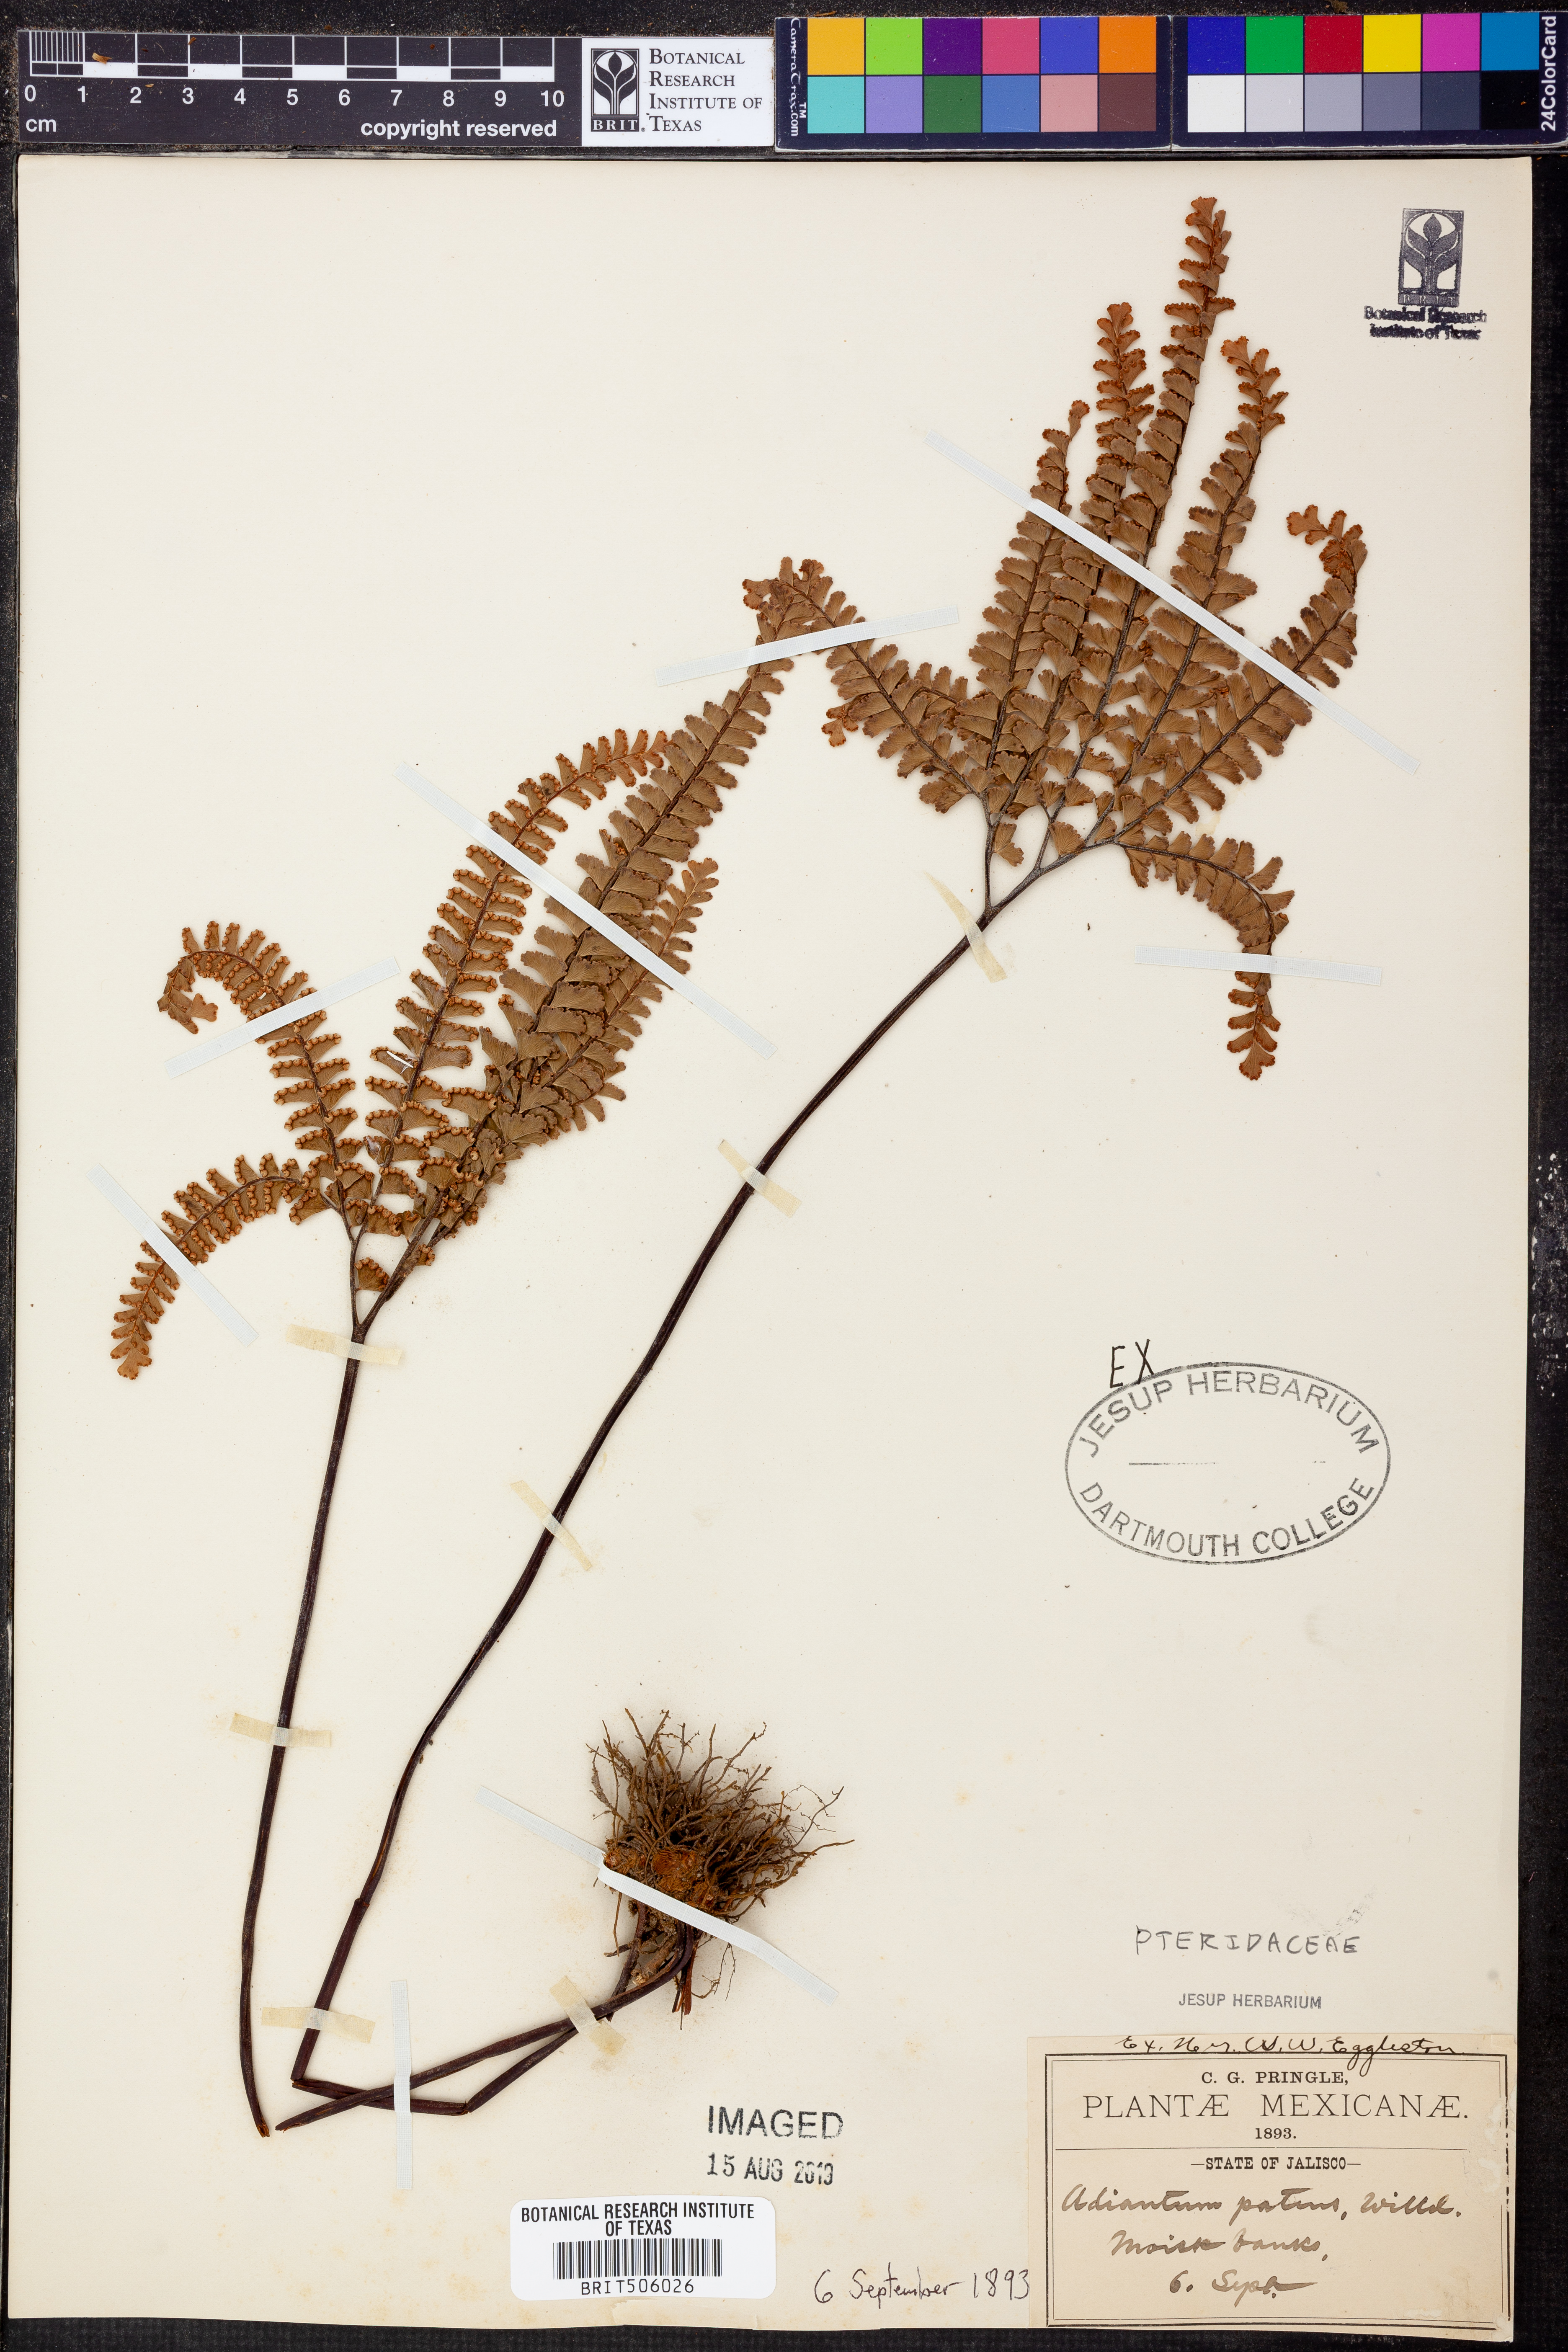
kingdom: Plantae
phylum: Tracheophyta
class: Polypodiopsida
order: Polypodiales
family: Pteridaceae
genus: Adiantum
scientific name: Adiantum patens
